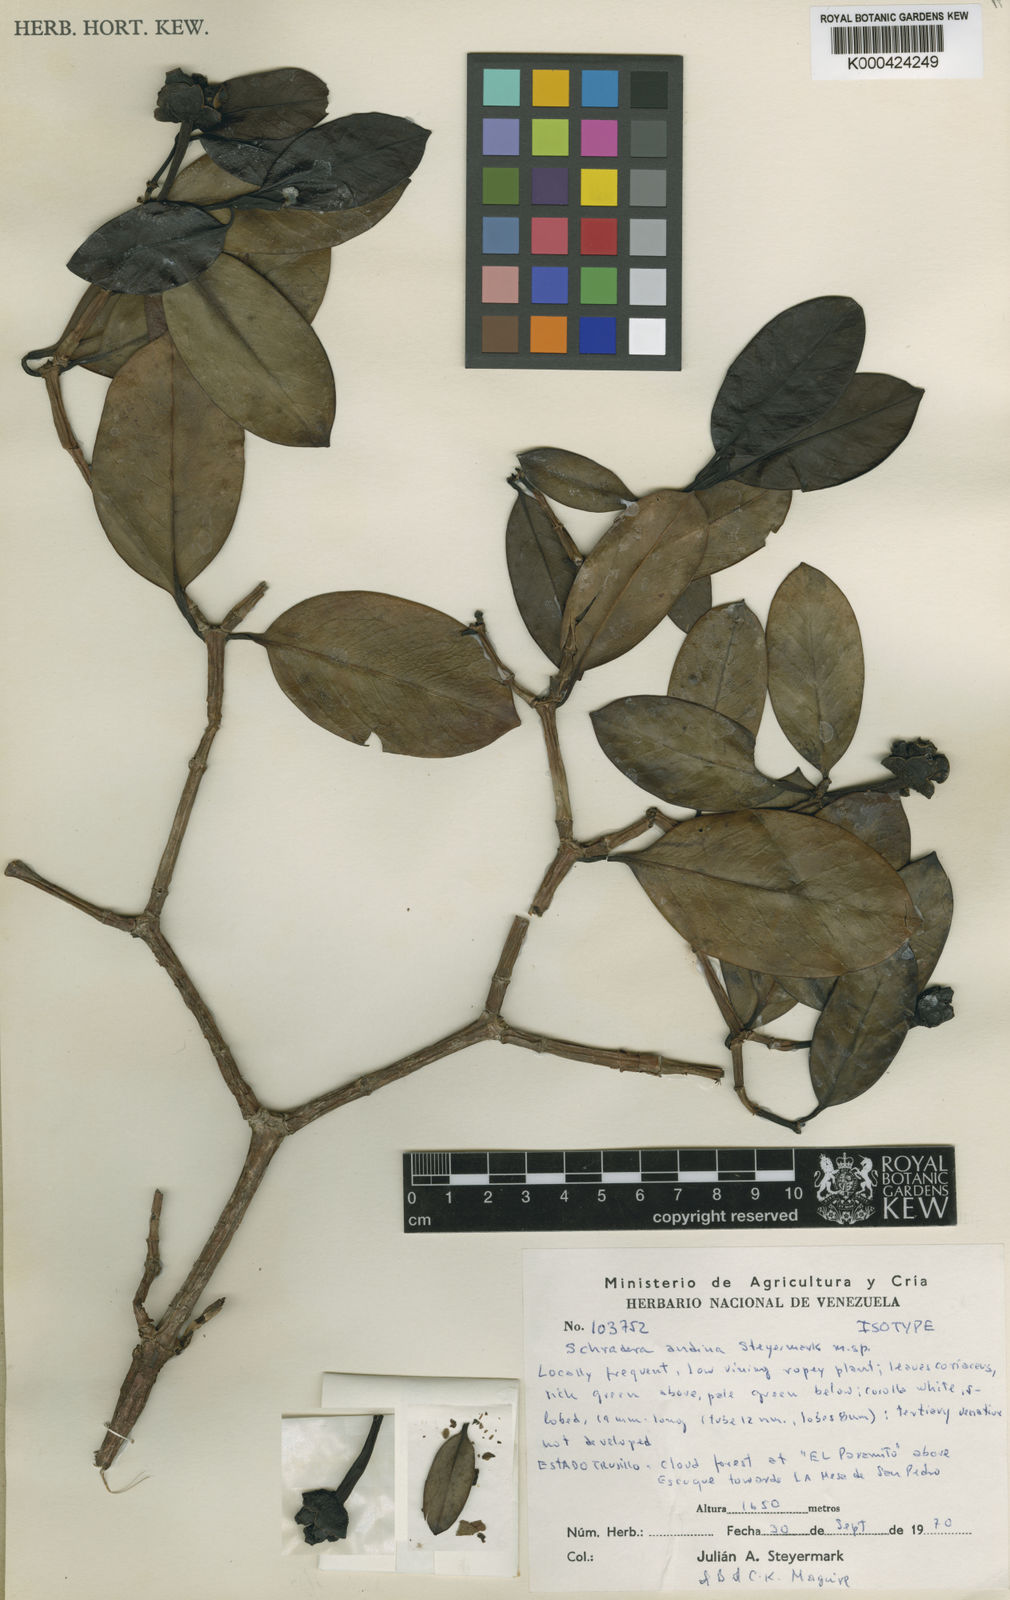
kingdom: Plantae
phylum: Tracheophyta
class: Magnoliopsida
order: Gentianales
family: Rubiaceae
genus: Schradera
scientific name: Schradera andina
